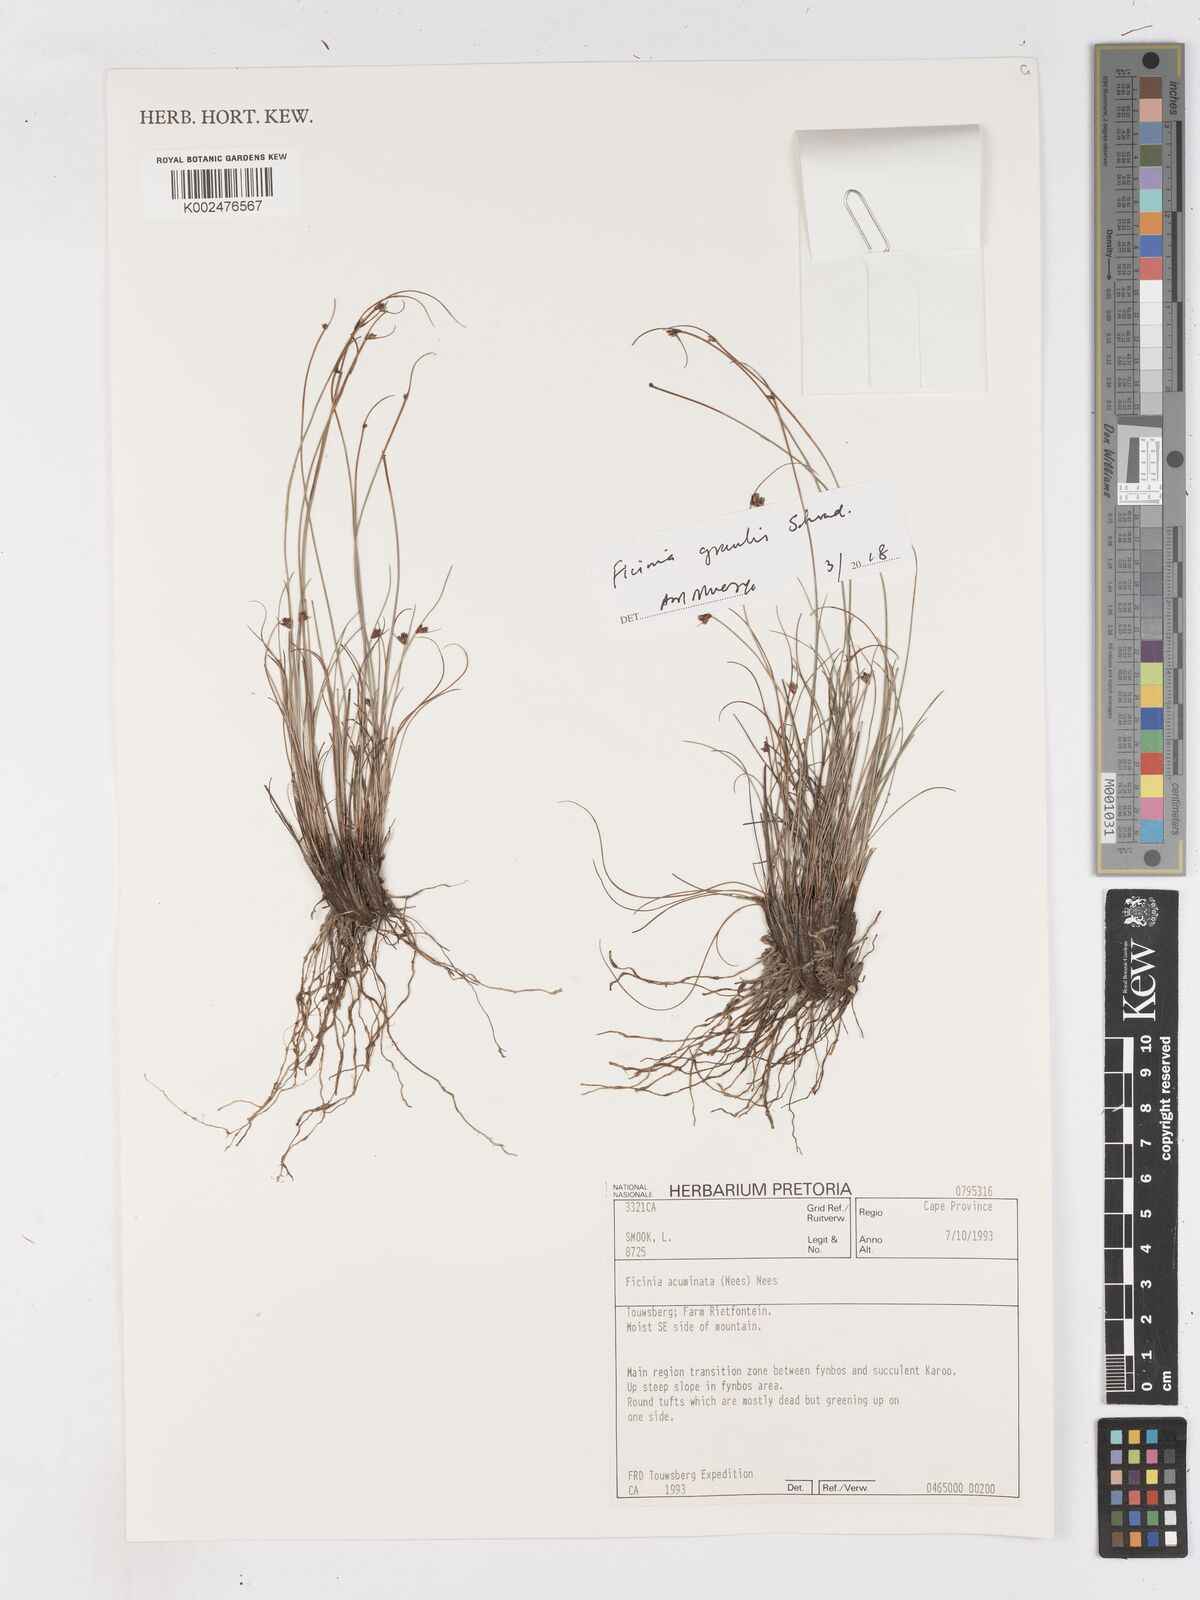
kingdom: Plantae
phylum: Tracheophyta
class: Liliopsida
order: Poales
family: Cyperaceae
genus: Ficinia
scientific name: Ficinia
